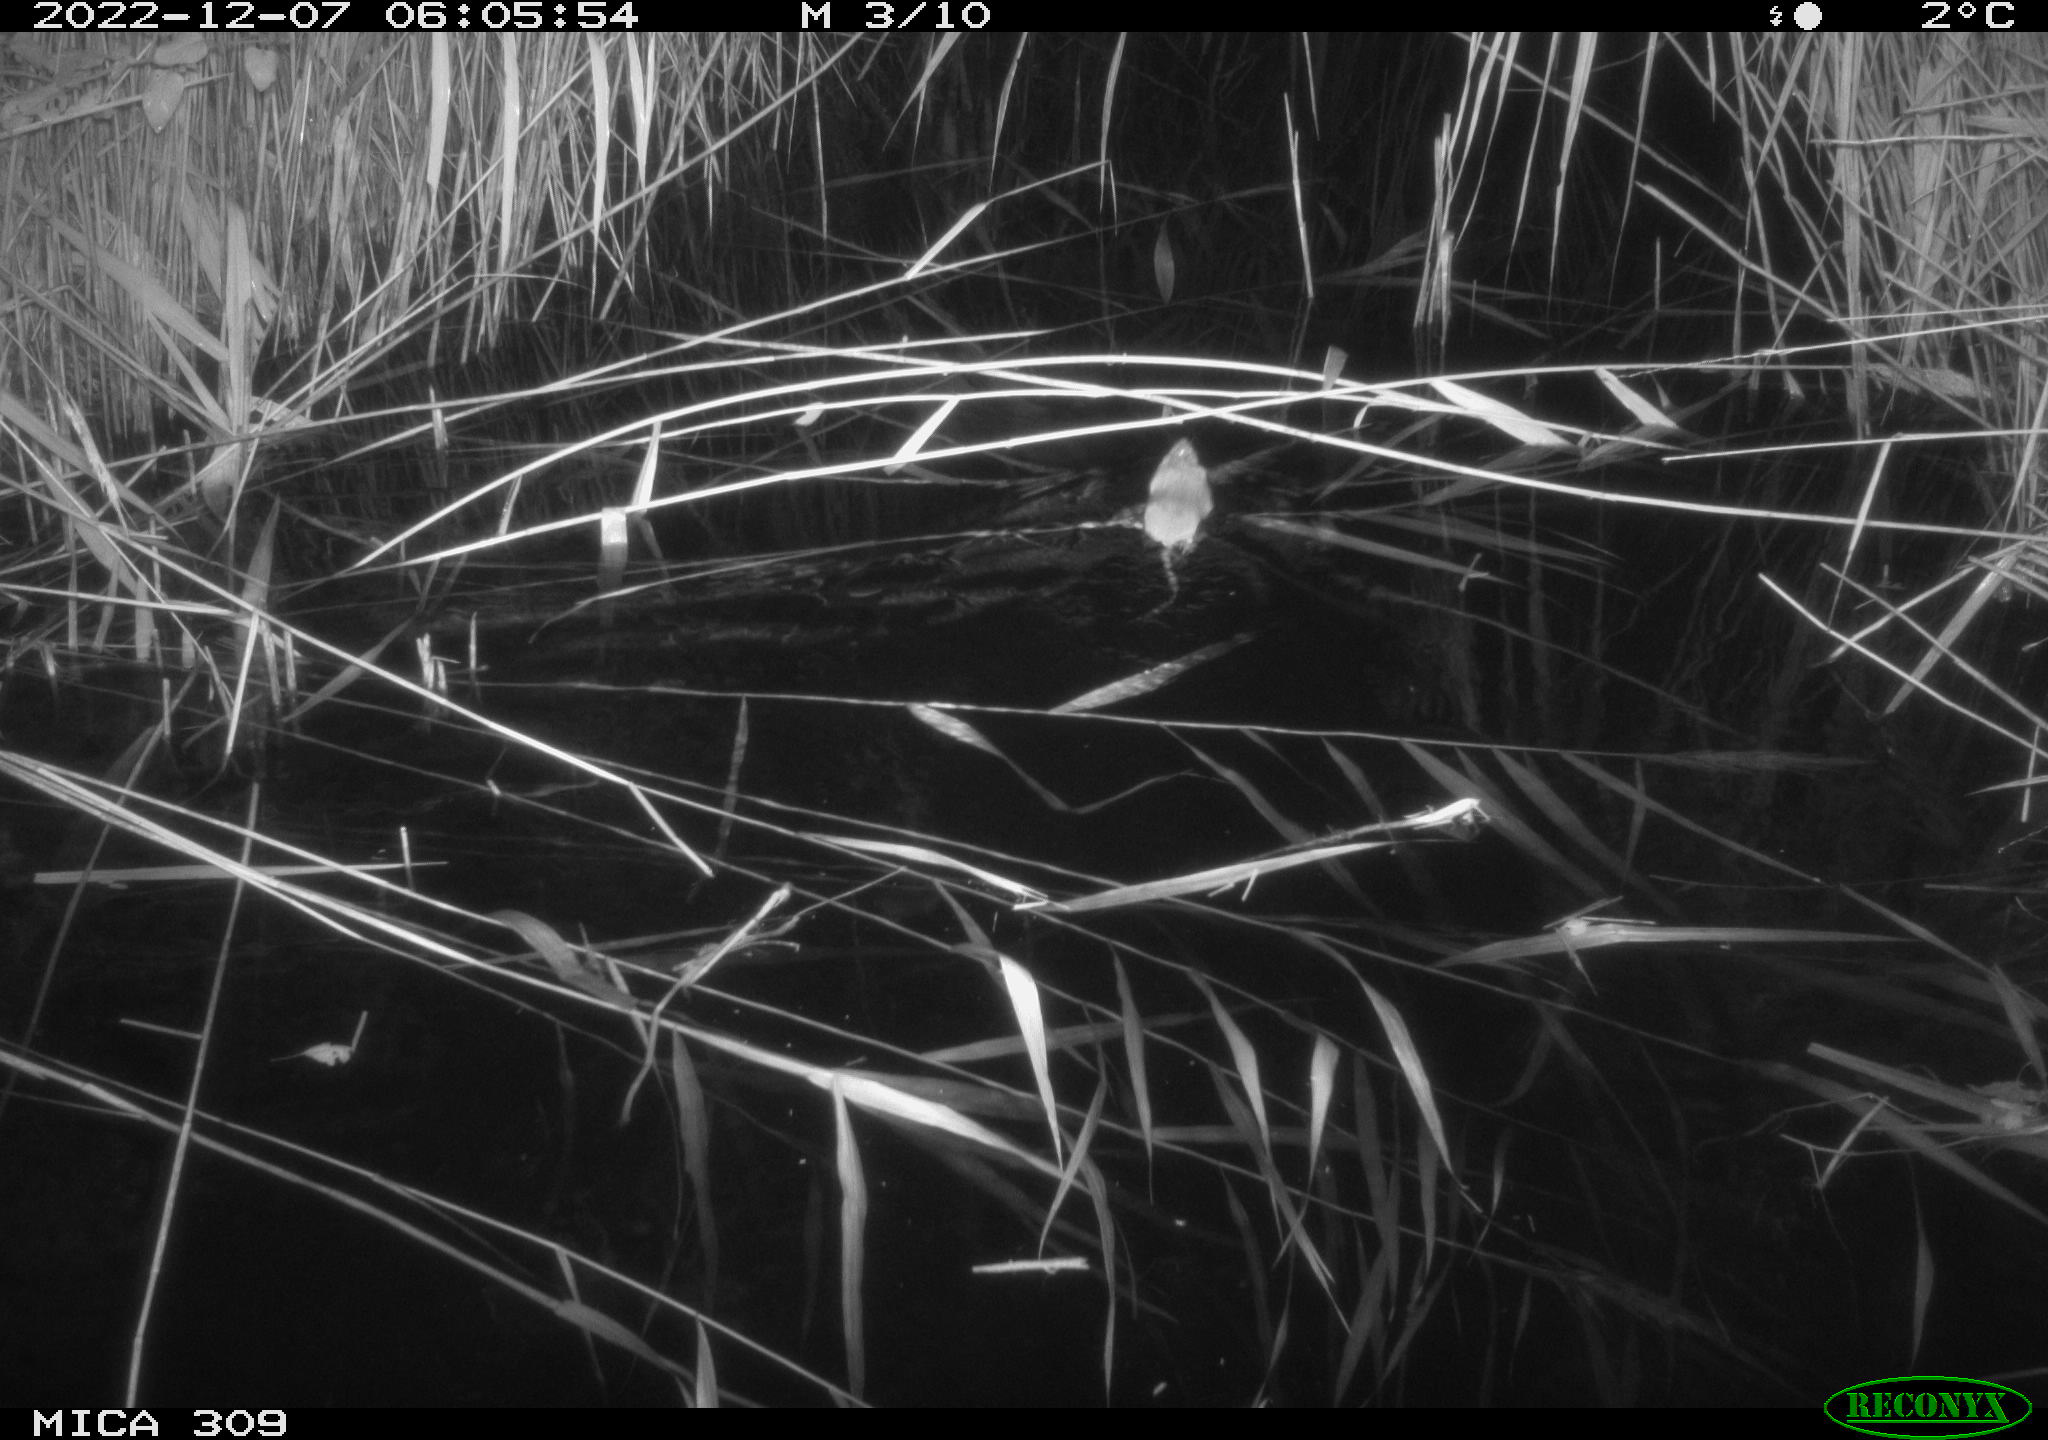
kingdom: Animalia
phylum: Chordata
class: Mammalia
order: Rodentia
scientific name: Rodentia
